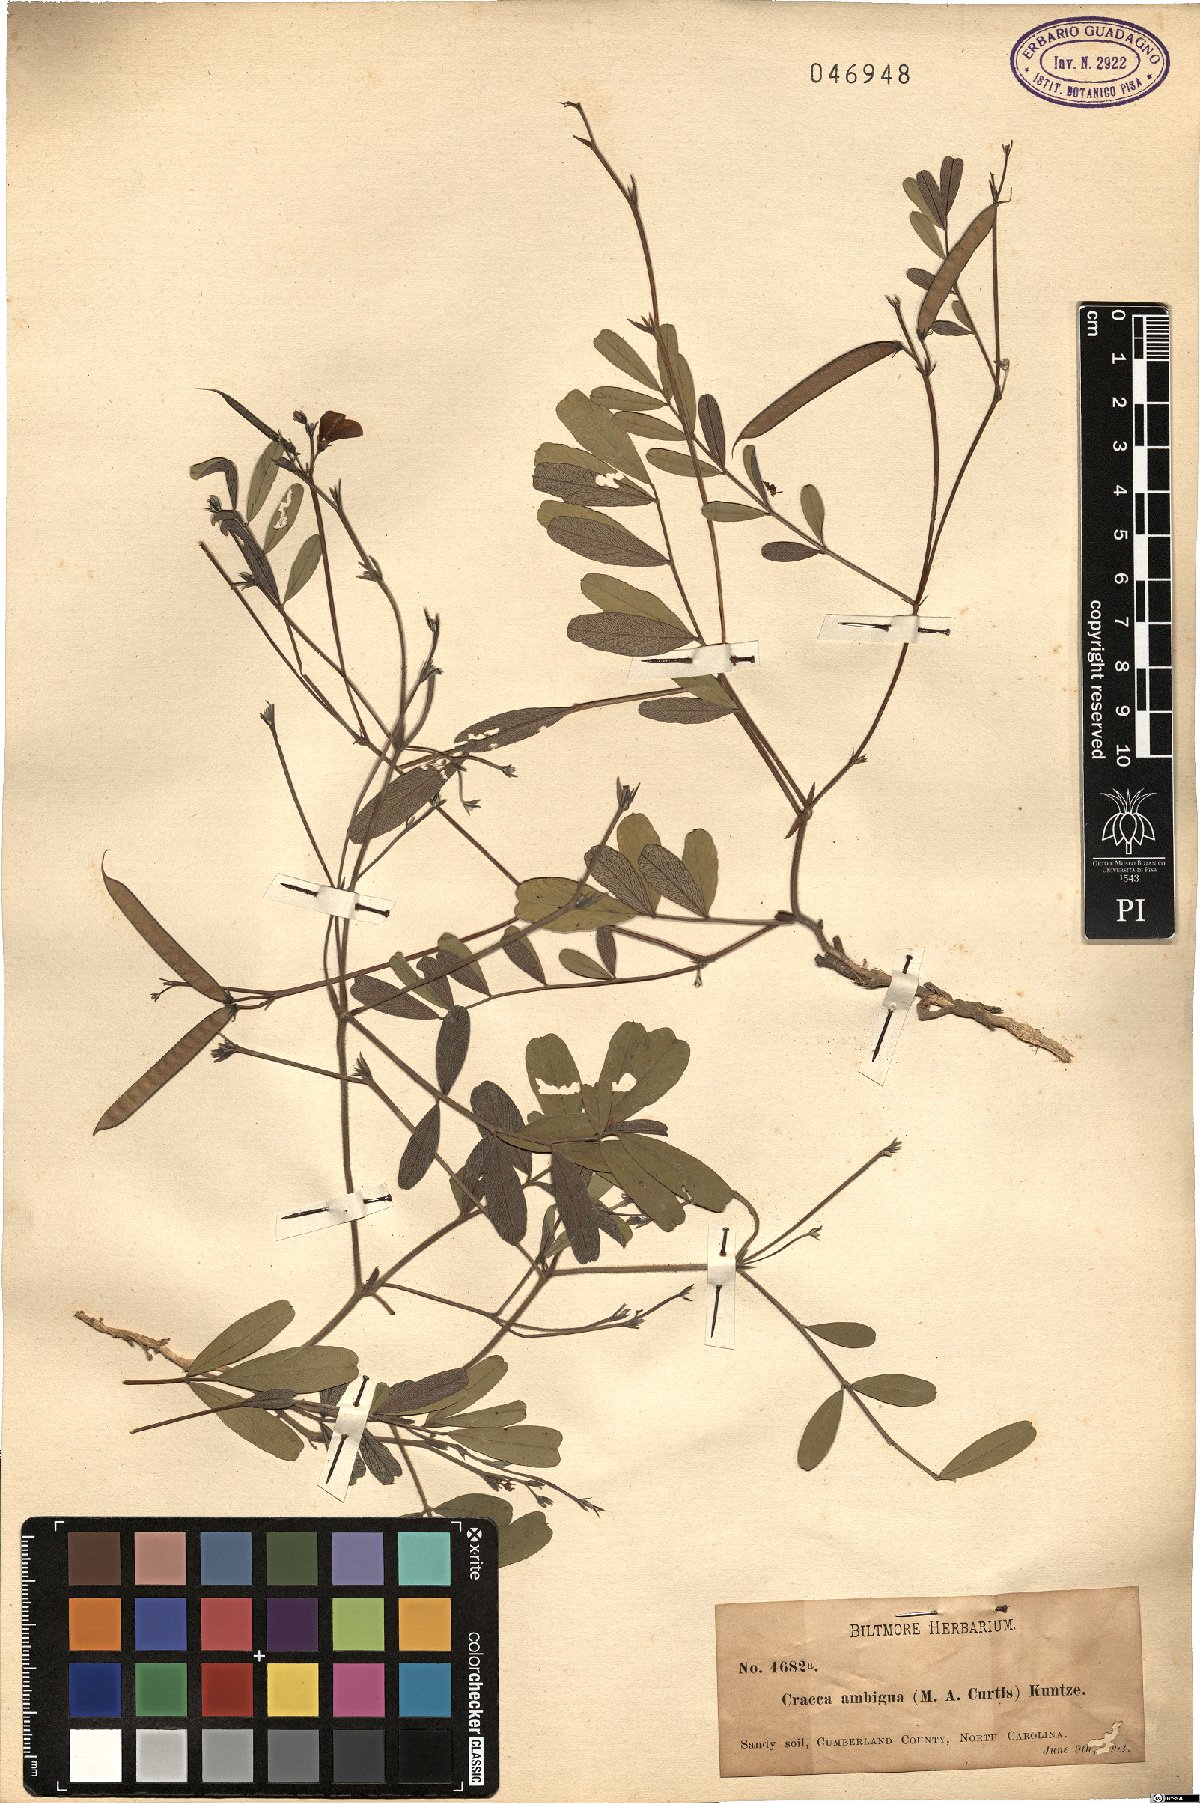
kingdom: Plantae
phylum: Tracheophyta
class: Magnoliopsida
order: Fabales
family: Fabaceae
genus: Tephrosia
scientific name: Tephrosia florida
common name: Florida hoary-pea
